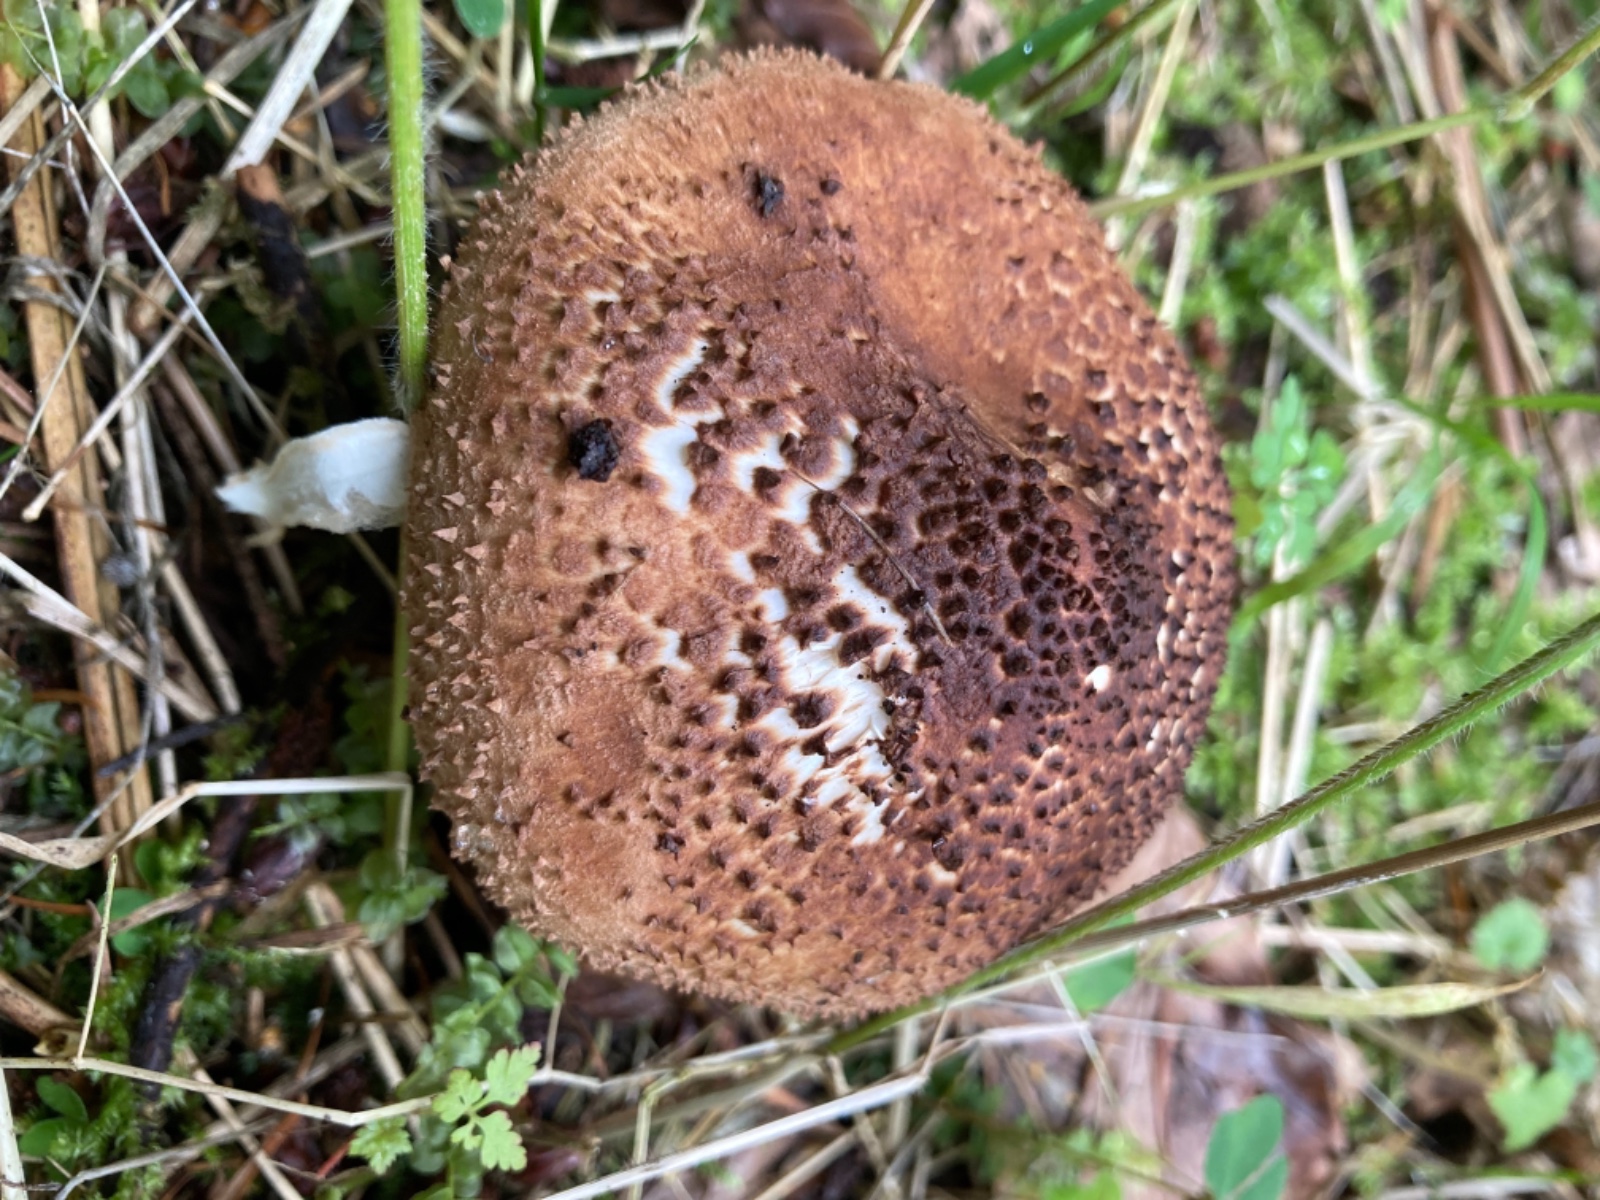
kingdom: Fungi
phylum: Basidiomycota
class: Agaricomycetes
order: Agaricales
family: Agaricaceae
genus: Echinoderma
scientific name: Echinoderma asperum
